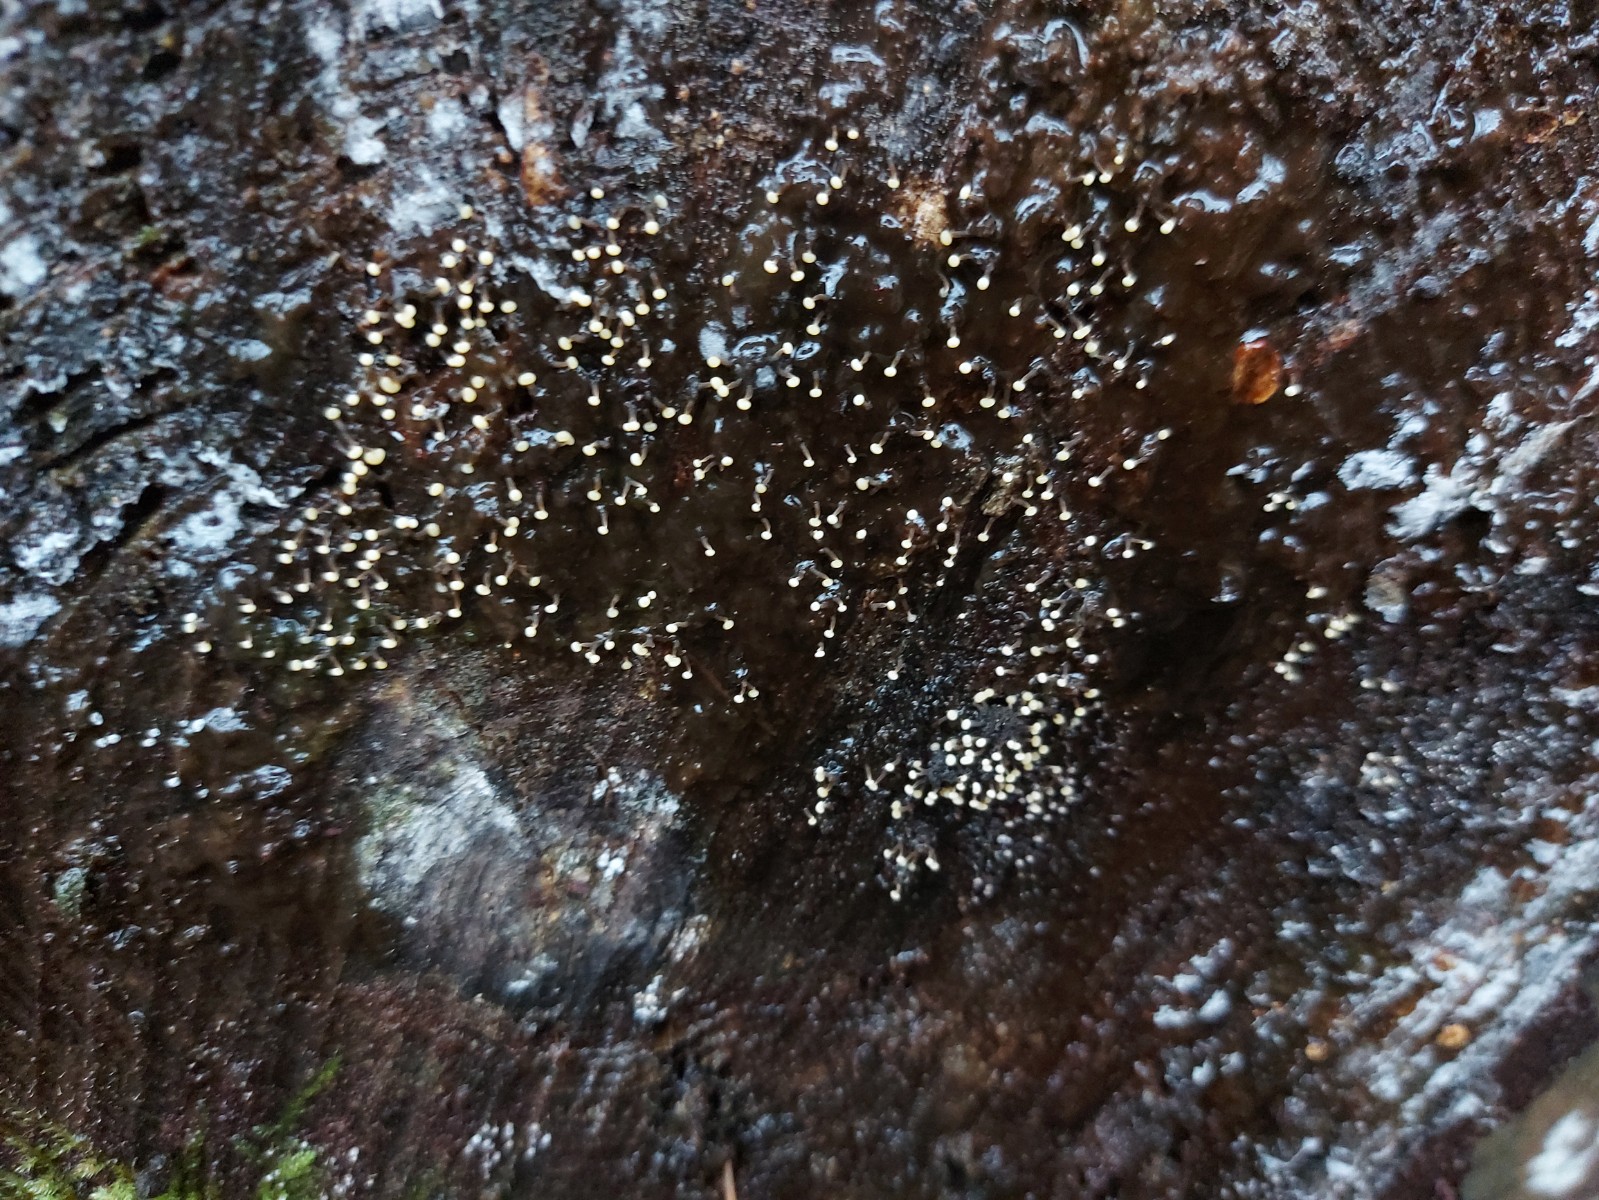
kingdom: Protozoa
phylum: Mycetozoa
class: Myxomycetes
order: Physarales
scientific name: Physarales
